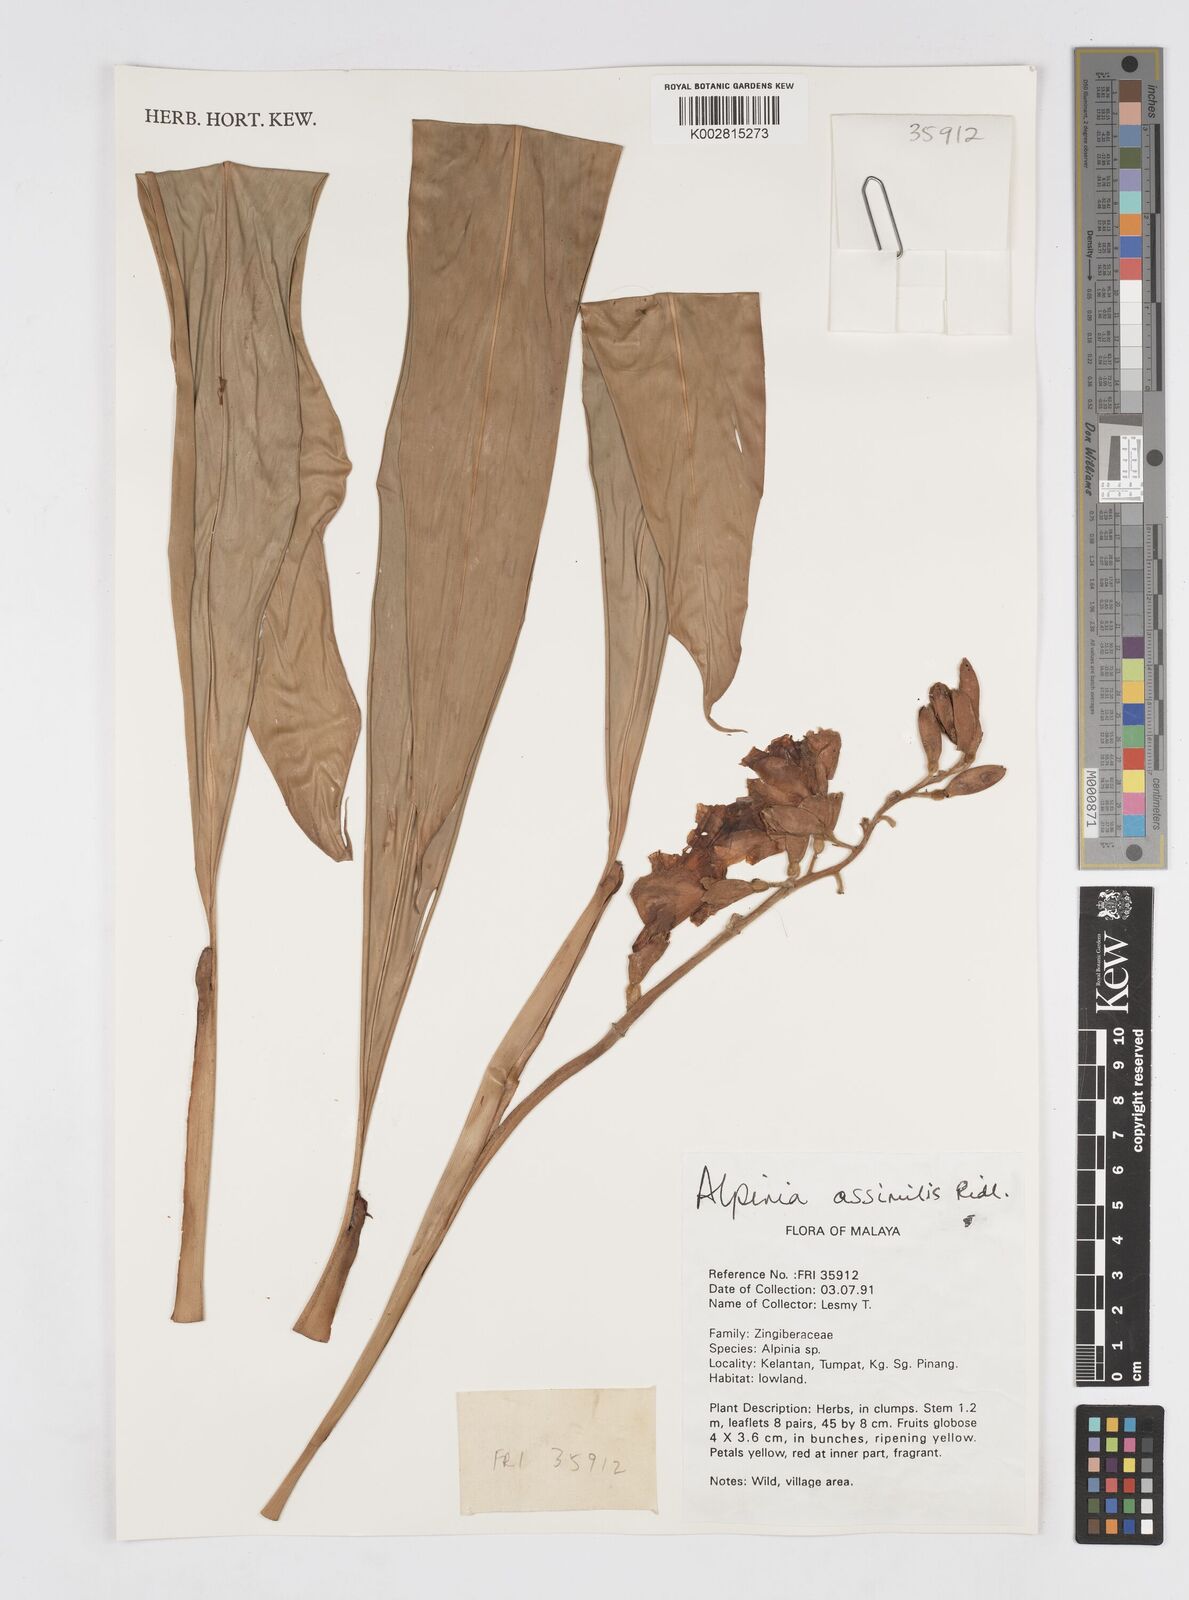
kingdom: Plantae
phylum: Tracheophyta
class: Liliopsida
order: Zingiberales
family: Zingiberaceae
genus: Alpinia
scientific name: Alpinia assimilis
